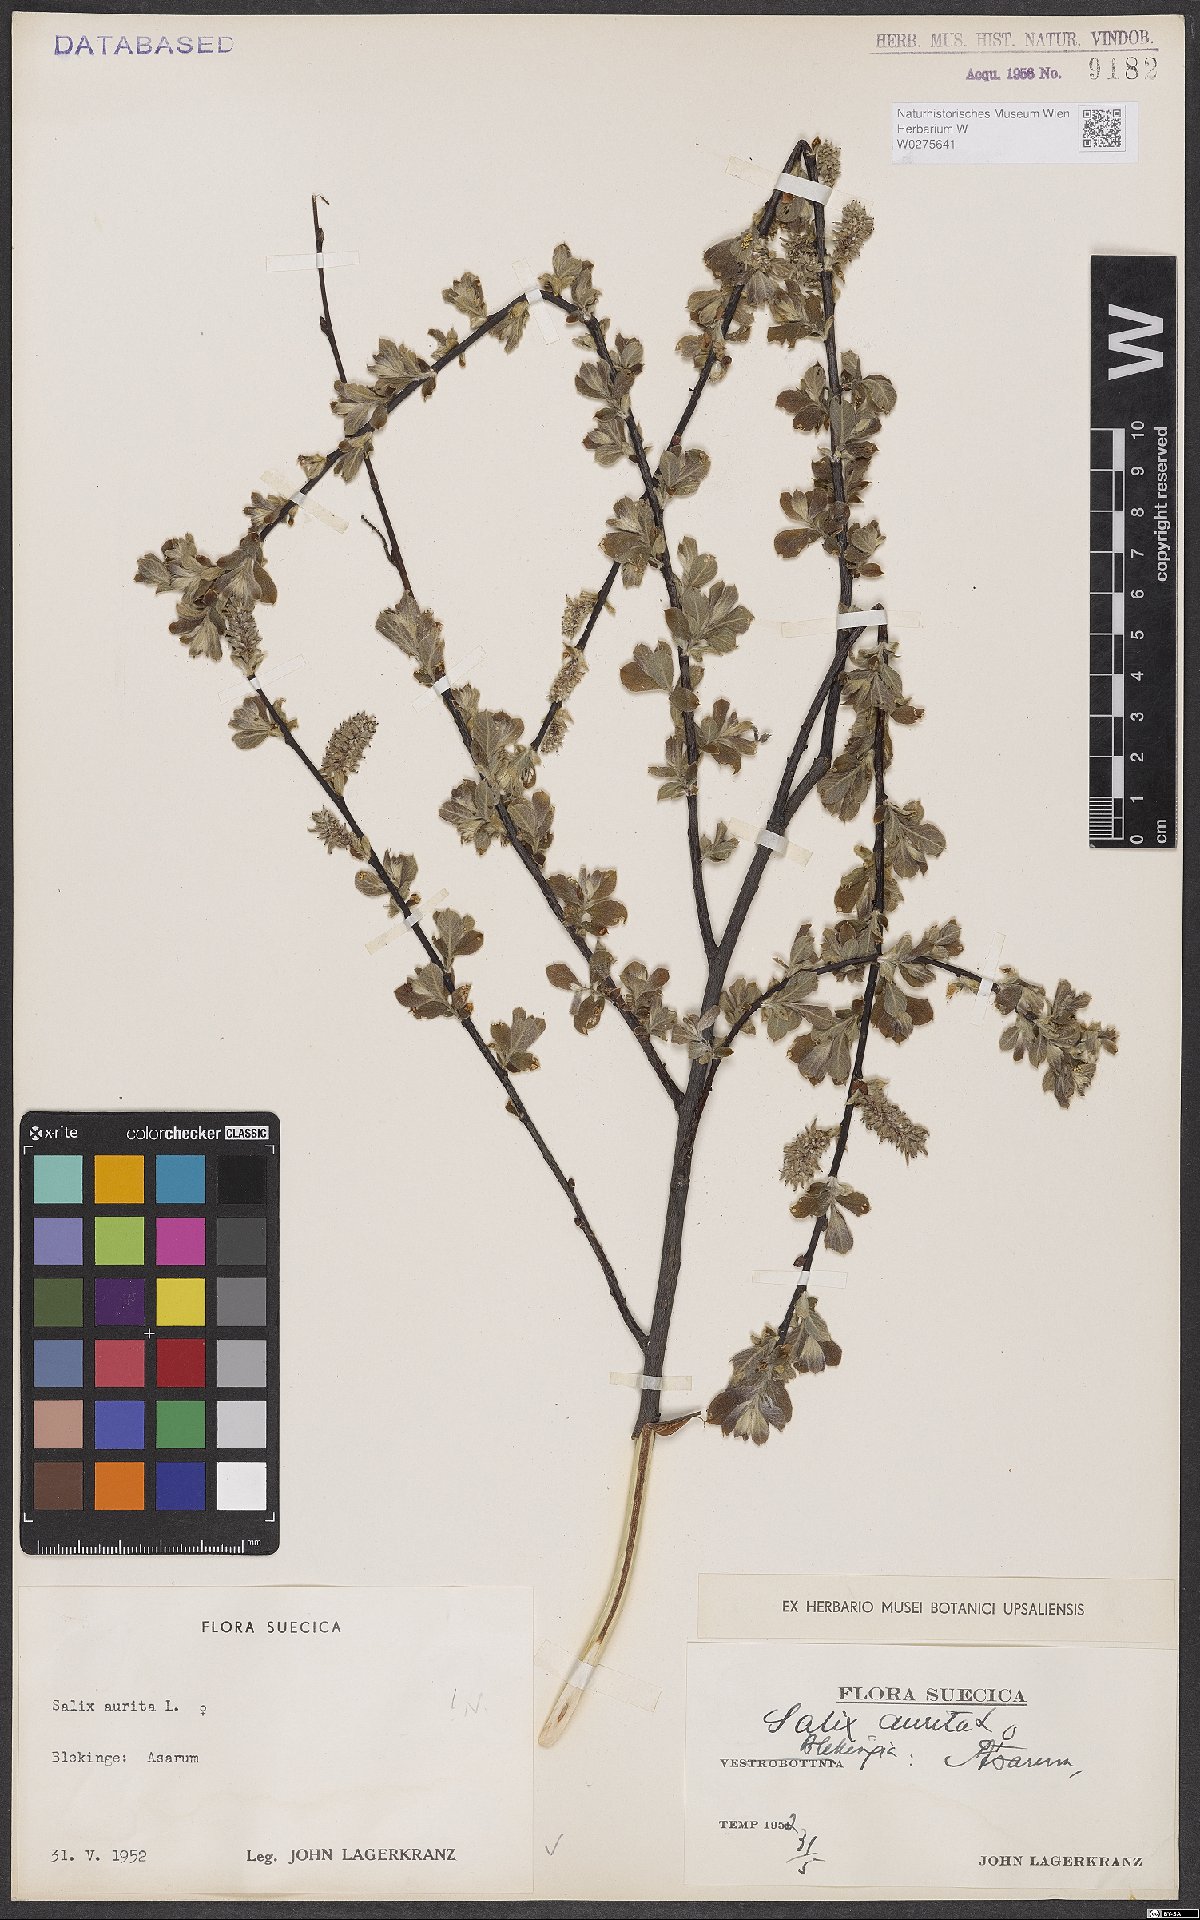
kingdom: Plantae
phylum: Tracheophyta
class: Magnoliopsida
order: Malpighiales
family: Salicaceae
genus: Salix
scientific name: Salix aurita
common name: Eared willow
